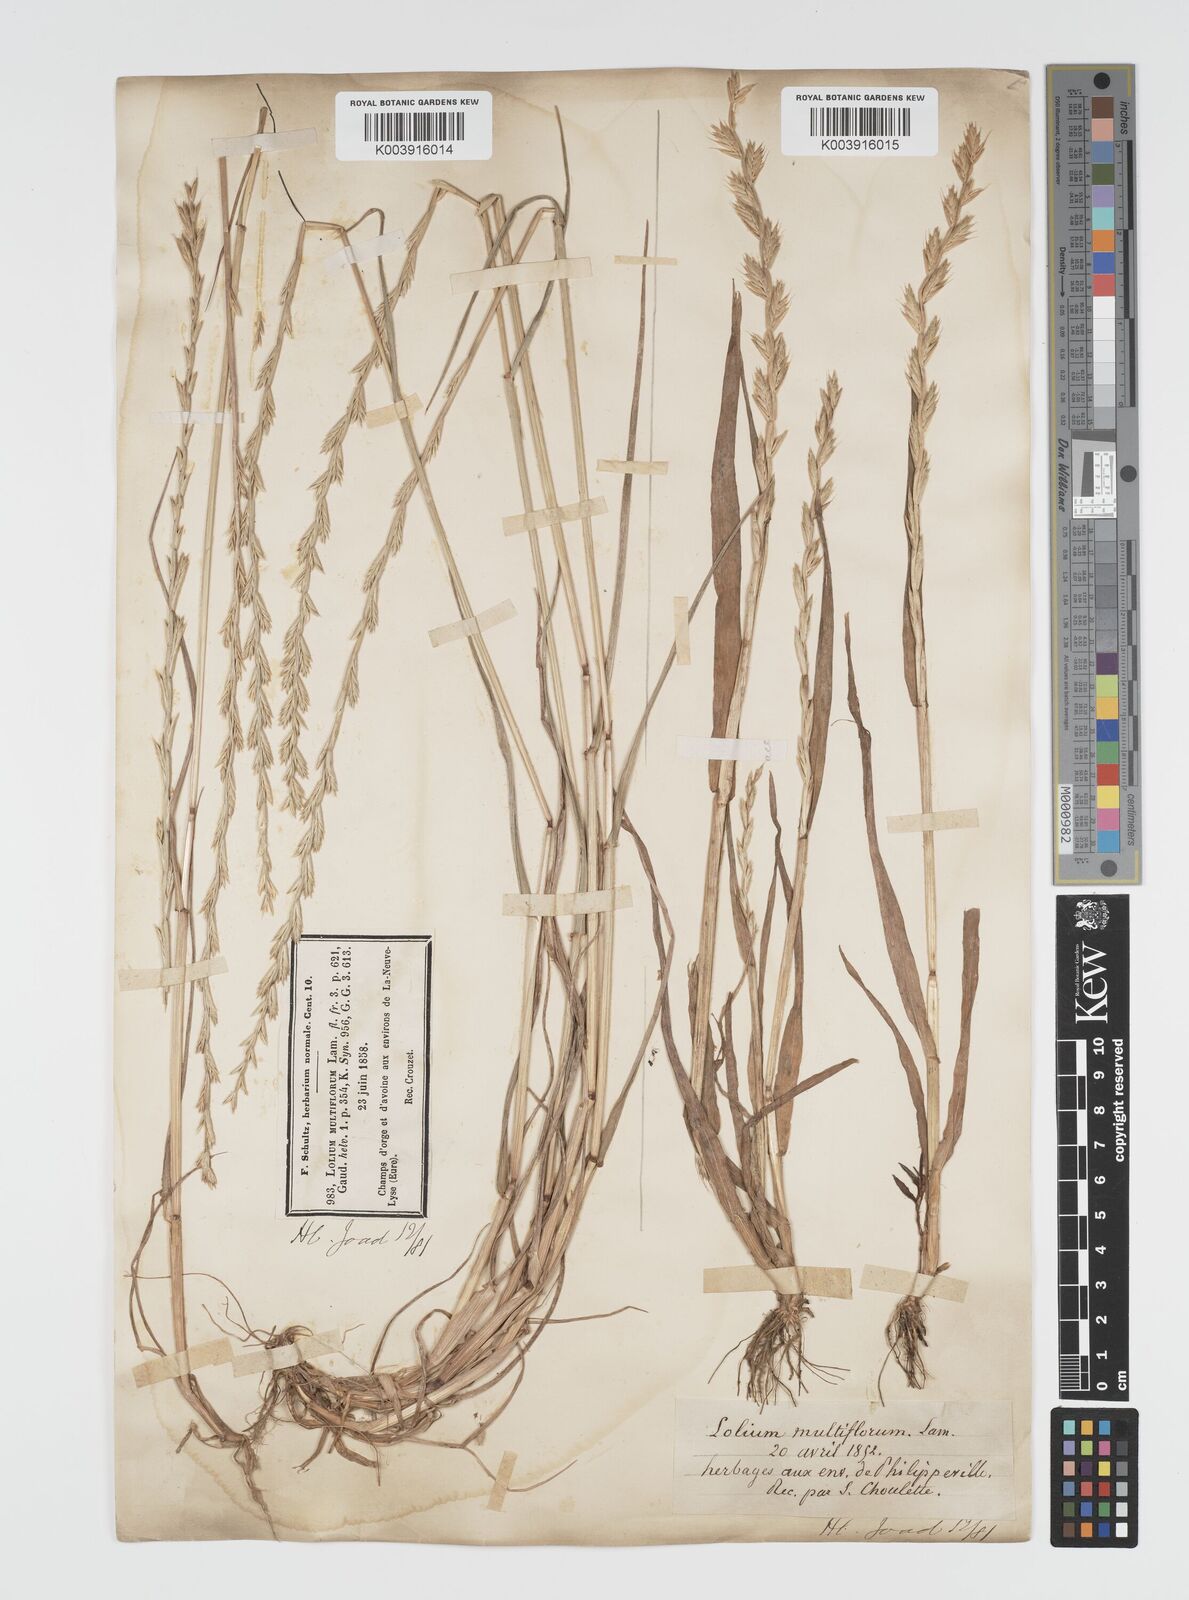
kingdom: Plantae
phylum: Tracheophyta
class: Liliopsida
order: Poales
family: Poaceae
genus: Lolium
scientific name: Lolium multiflorum
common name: Annual ryegrass
